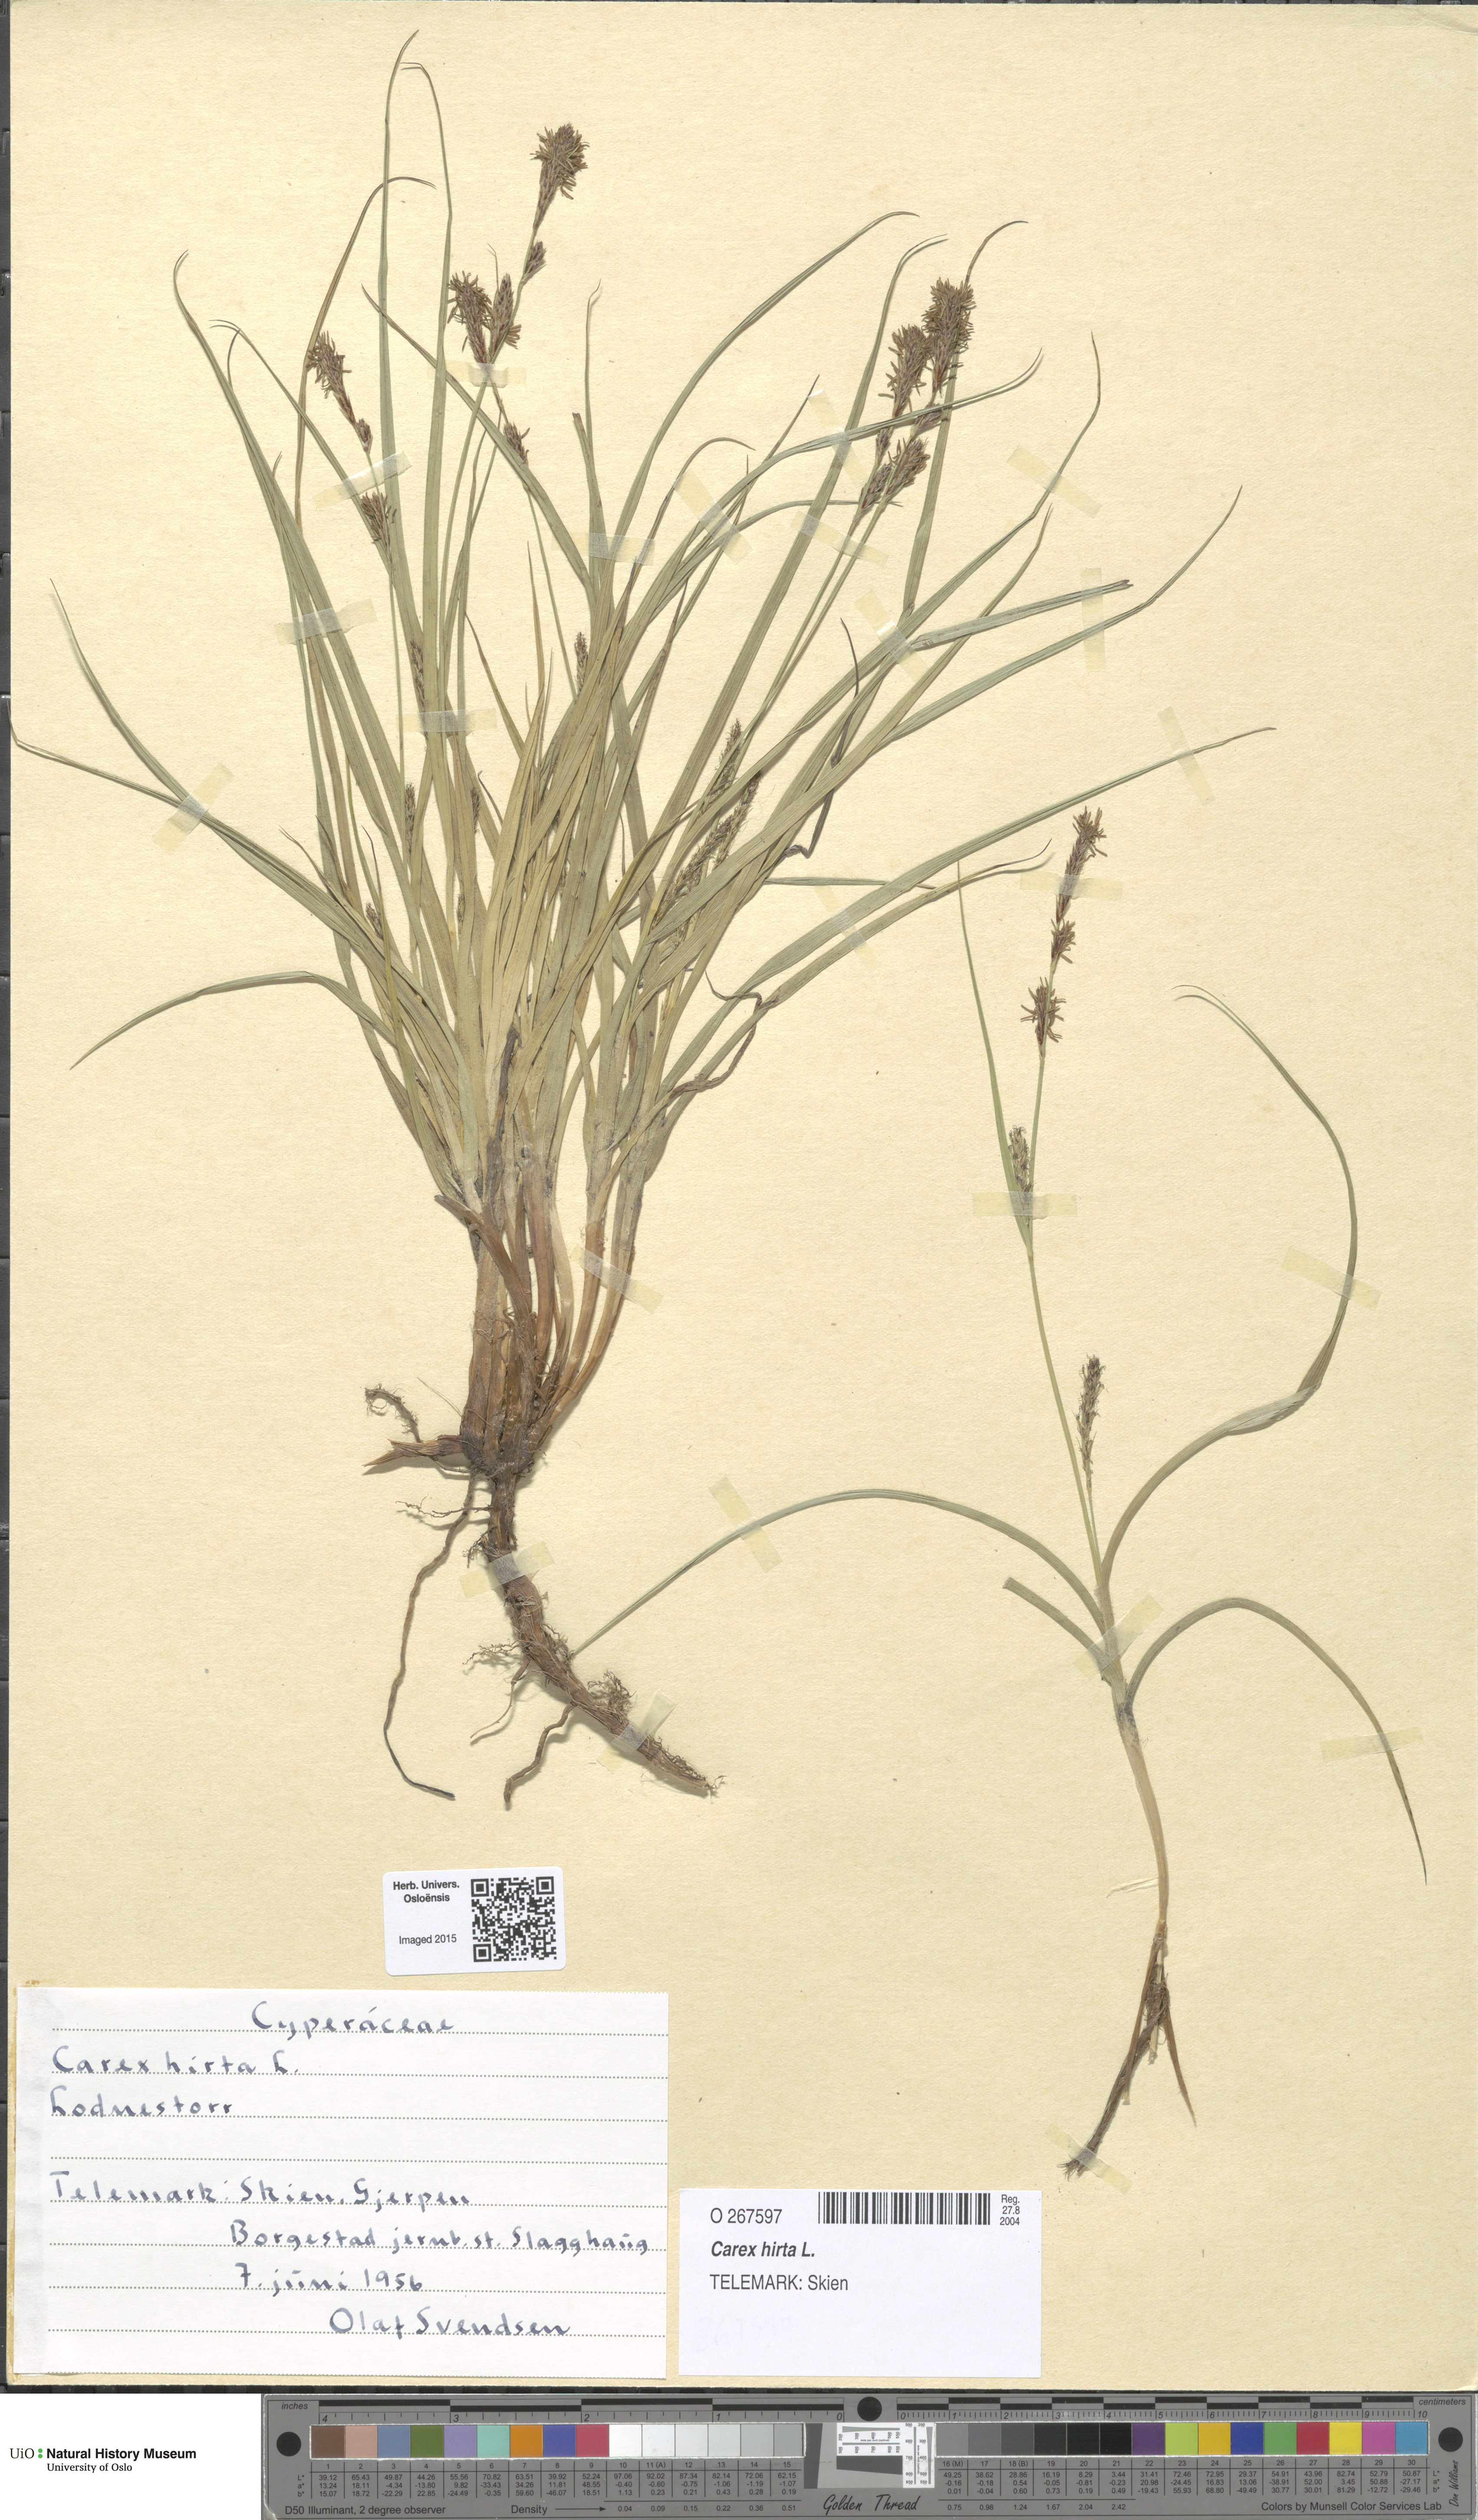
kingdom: Plantae
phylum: Tracheophyta
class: Liliopsida
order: Poales
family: Cyperaceae
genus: Carex
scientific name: Carex hirta
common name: Hairy sedge
